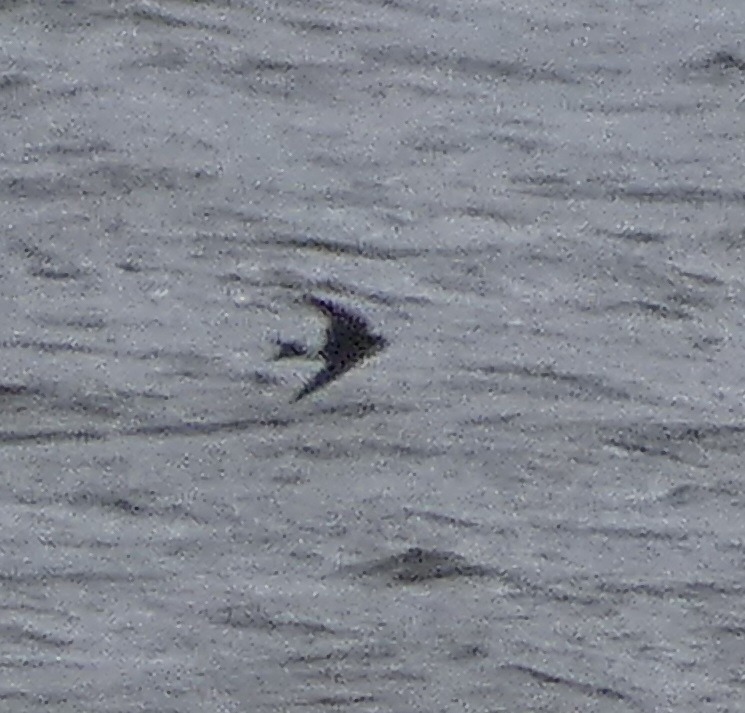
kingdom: Animalia
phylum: Chordata
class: Aves
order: Passeriformes
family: Hirundinidae
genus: Delichon
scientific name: Delichon urbicum
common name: Bysvale
